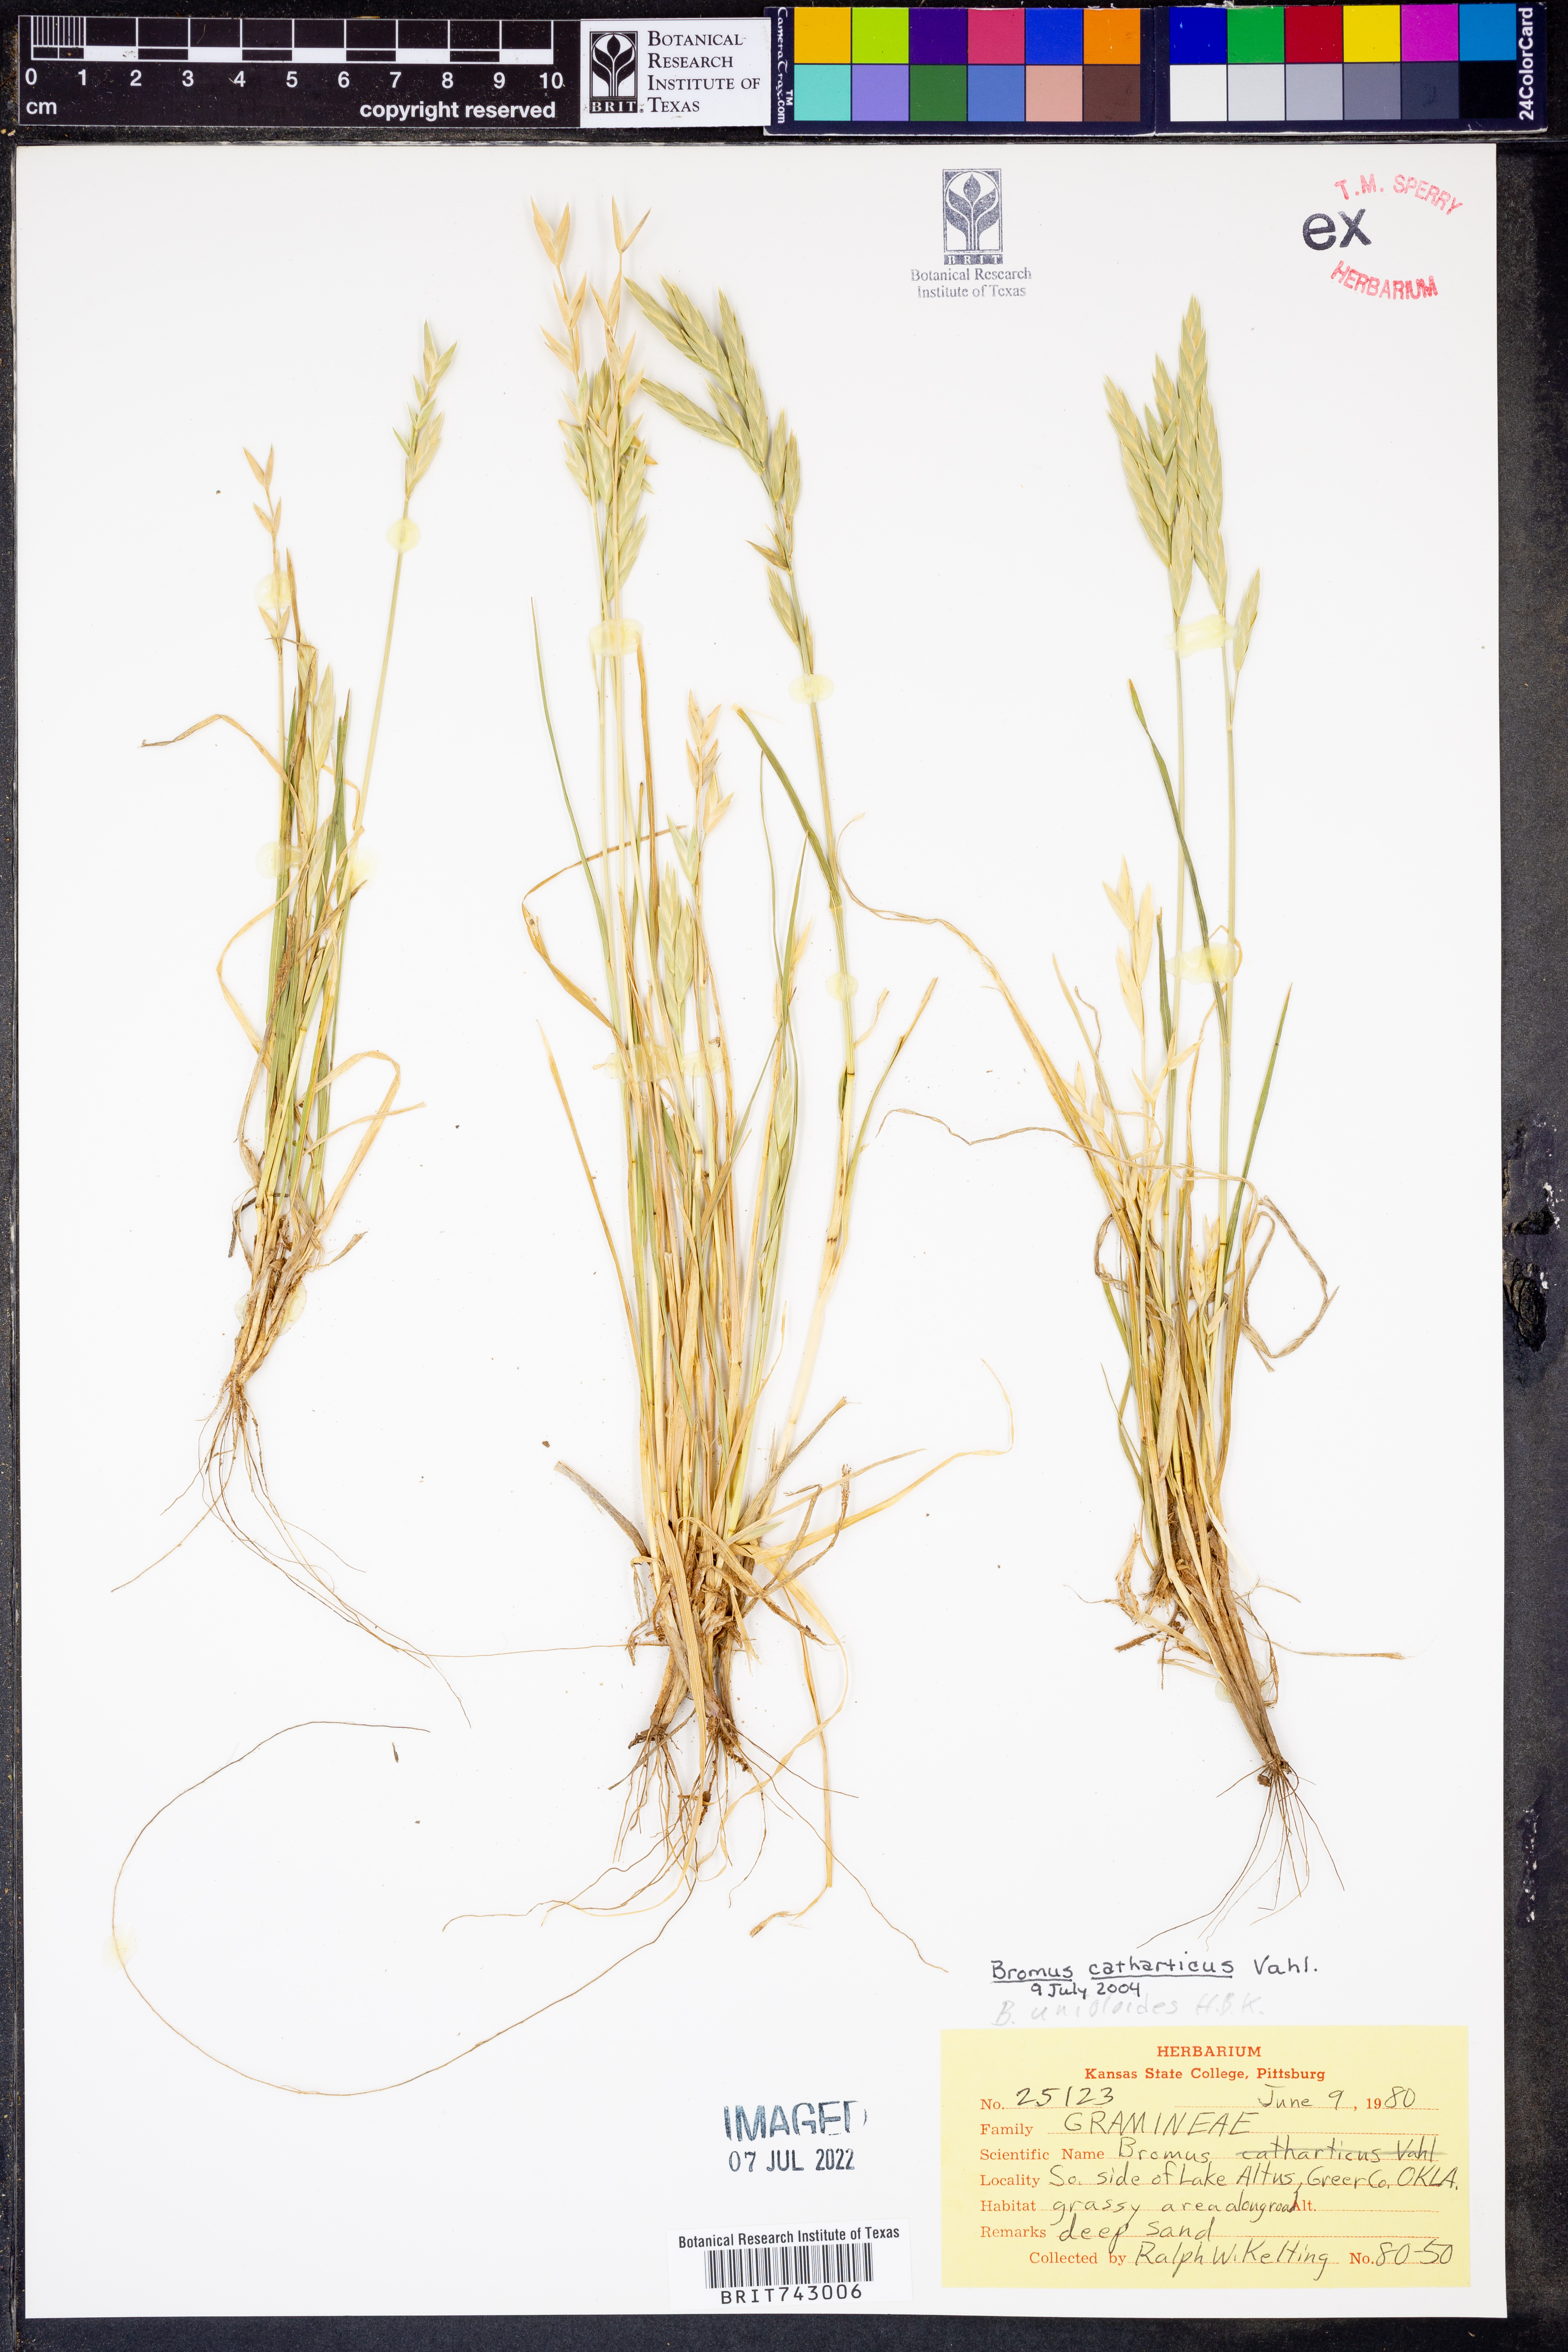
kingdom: Plantae
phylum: Tracheophyta
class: Liliopsida
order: Poales
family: Poaceae
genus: Bromus
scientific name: Bromus catharticus
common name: Rescuegrass
